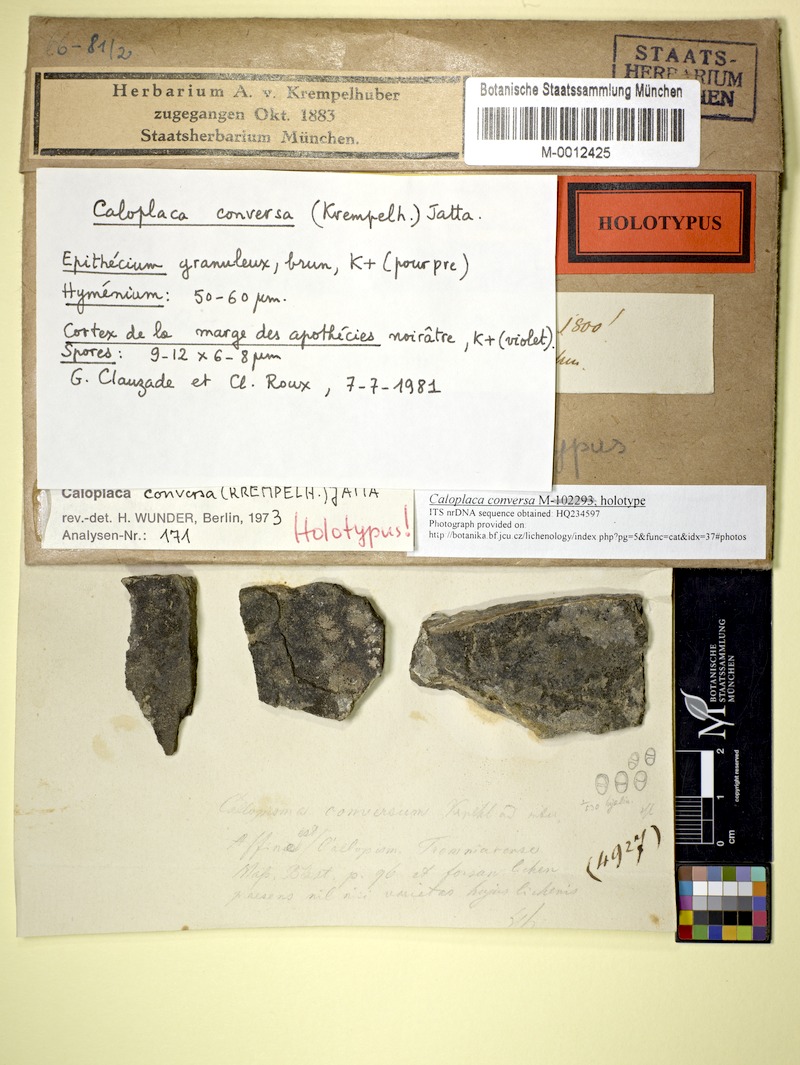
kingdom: Fungi
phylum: Ascomycota
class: Lecanoromycetes
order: Teloschistales
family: Teloschistaceae
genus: Pisutiella
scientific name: Pisutiella conversa
